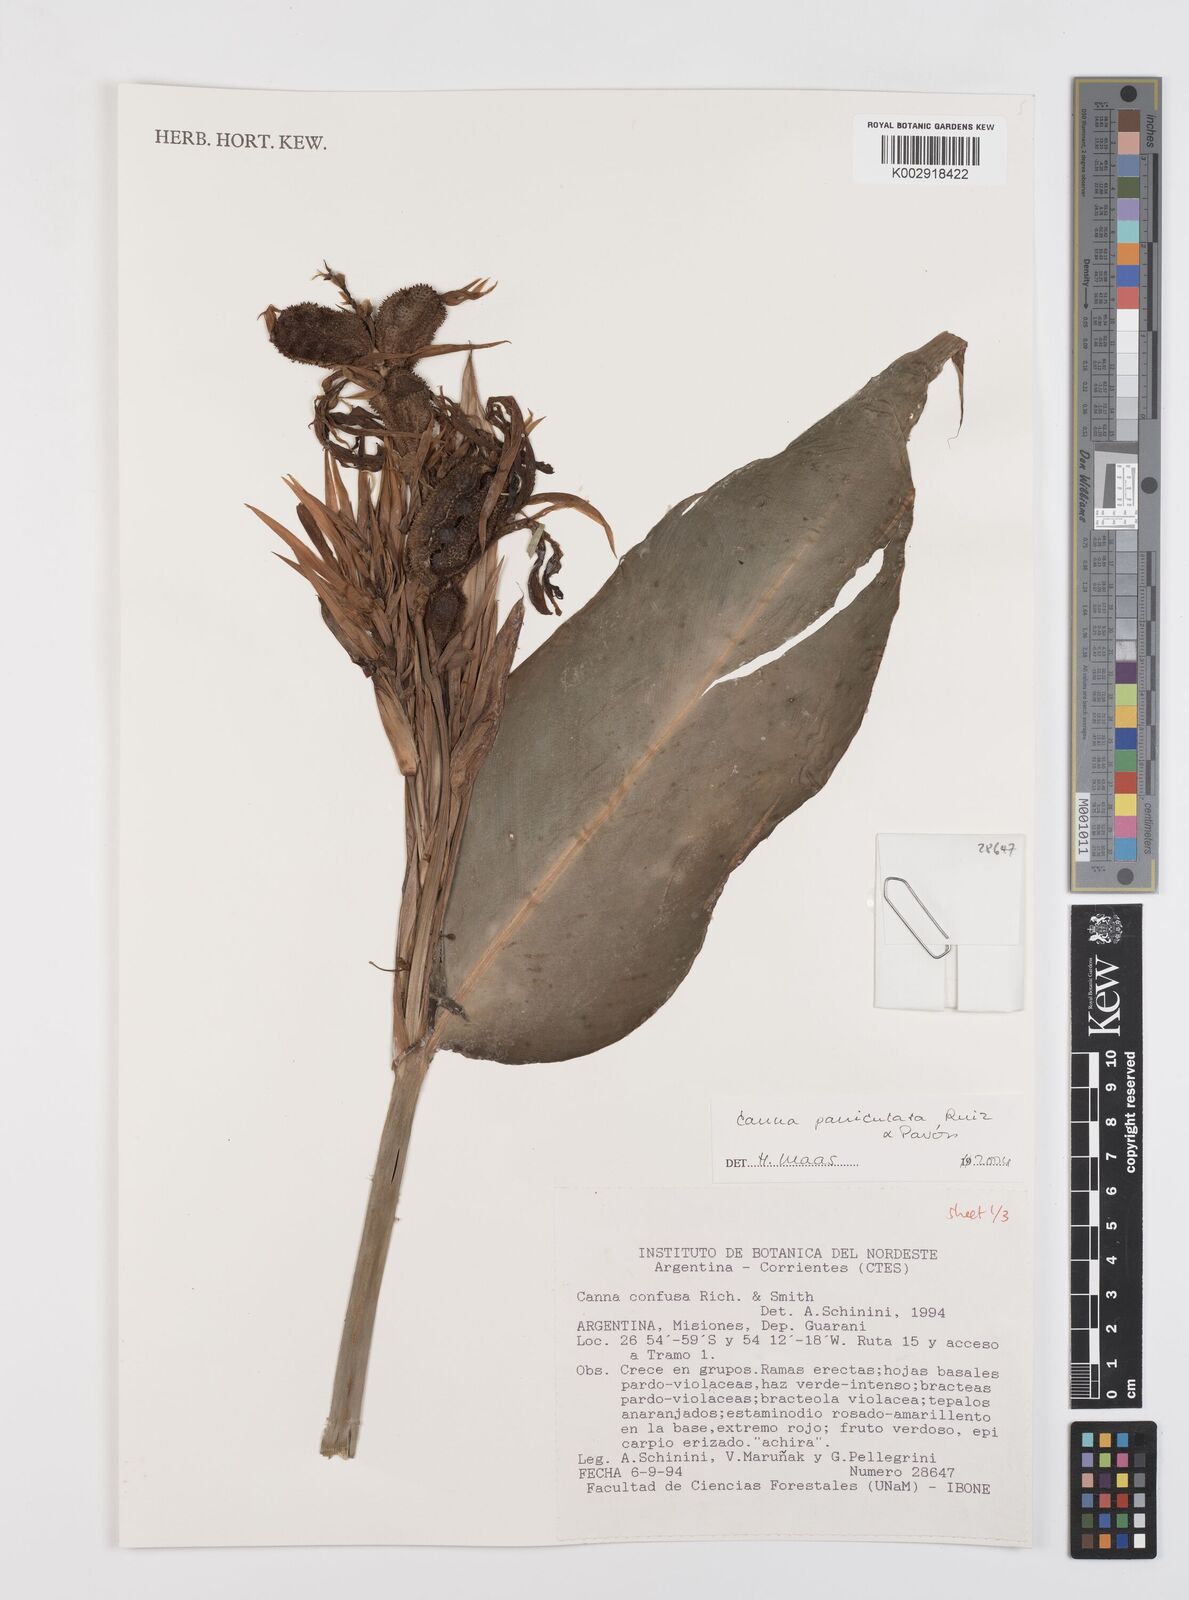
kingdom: Plantae
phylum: Tracheophyta
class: Liliopsida
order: Zingiberales
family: Cannaceae
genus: Canna
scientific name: Canna paniculata
